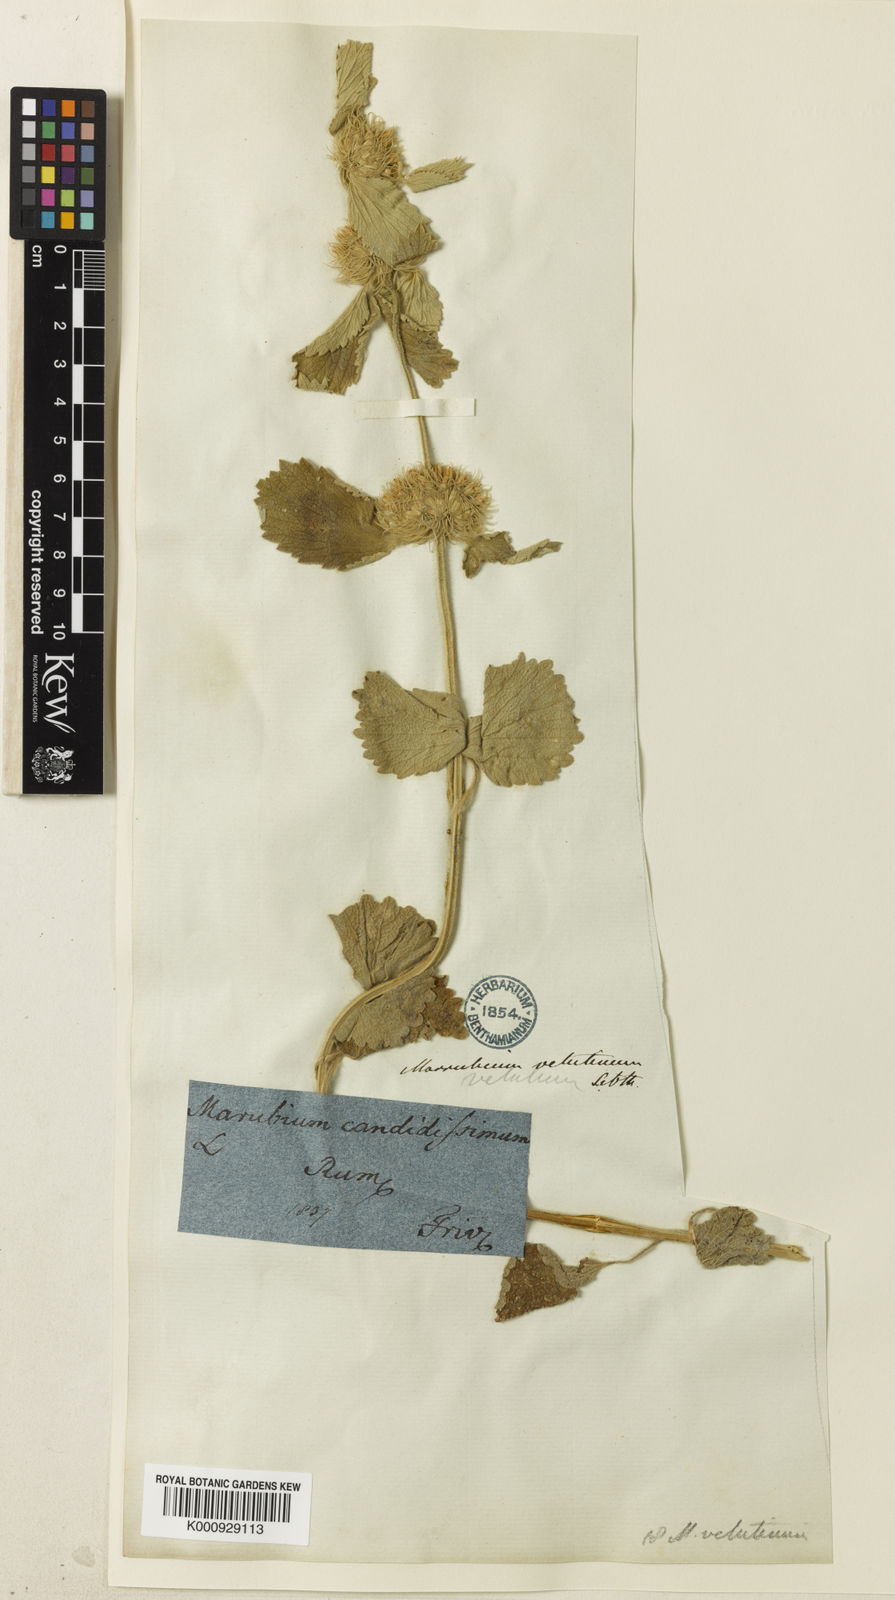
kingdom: Plantae
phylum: Tracheophyta
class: Magnoliopsida
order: Lamiales
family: Lamiaceae
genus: Marrubium
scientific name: Marrubium friwaldskyanum
